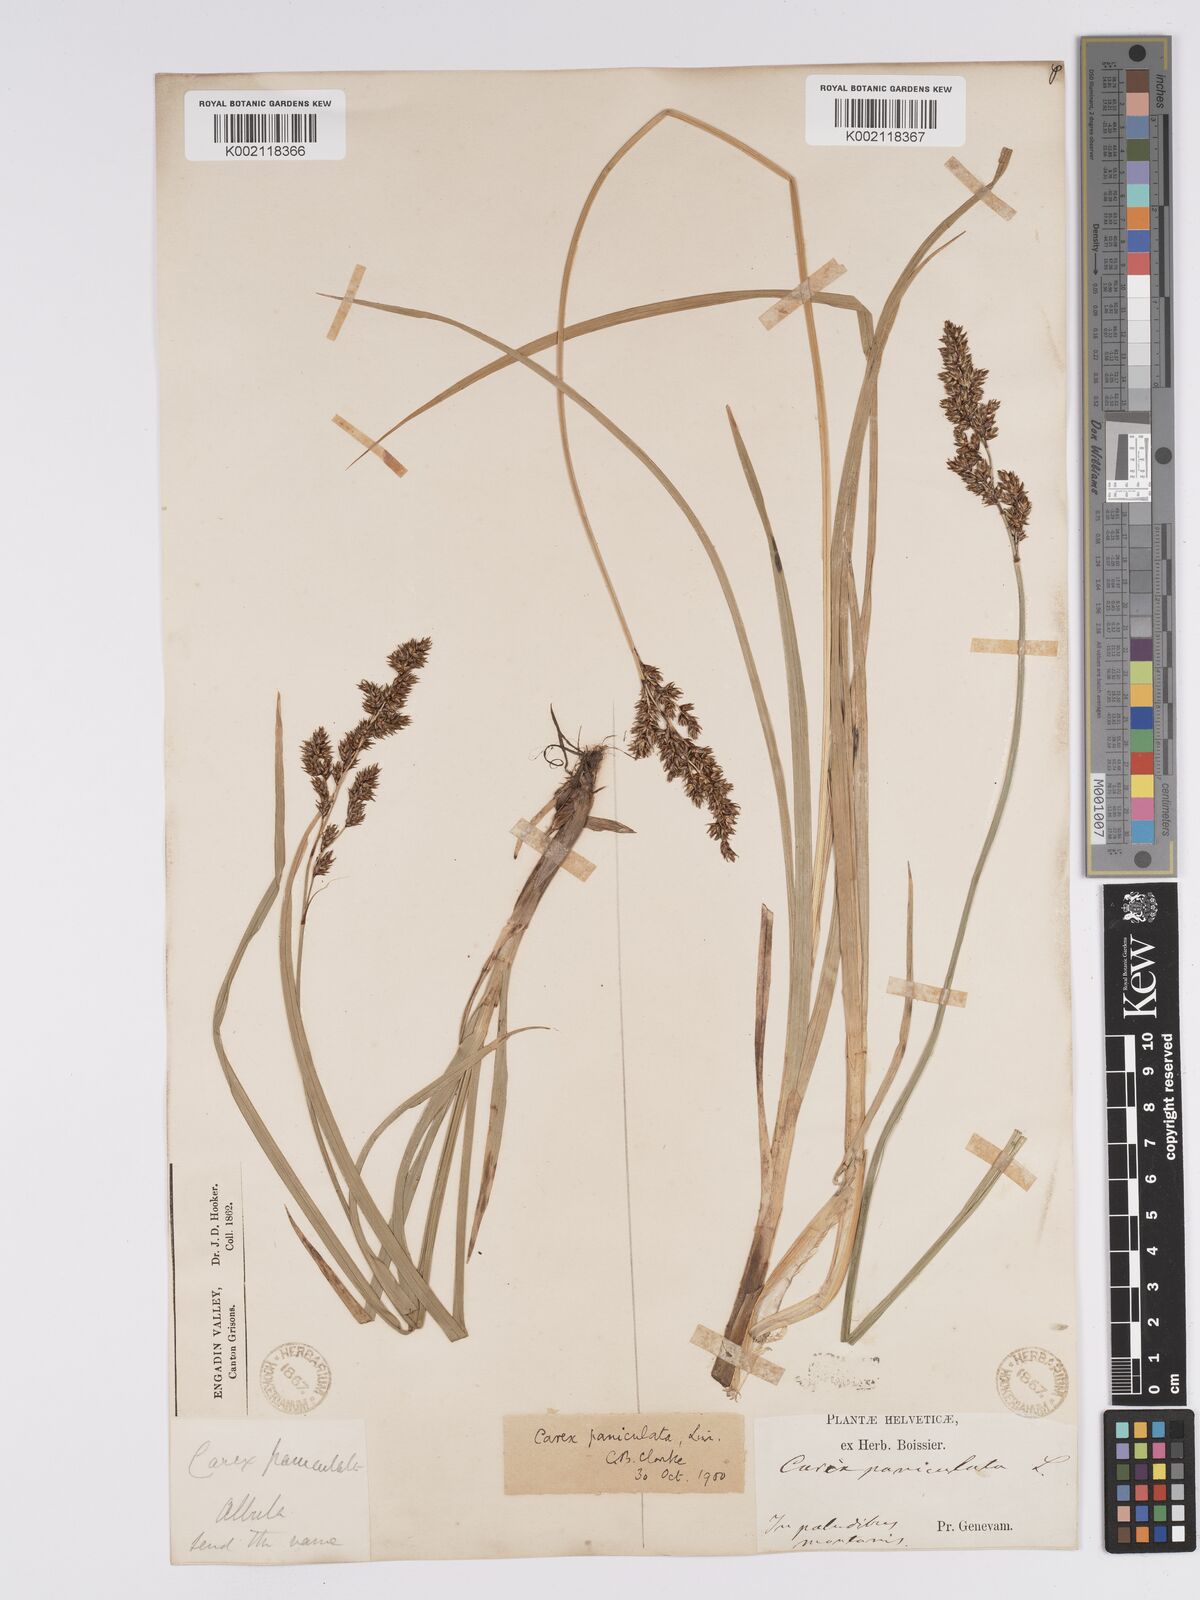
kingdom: Plantae
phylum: Tracheophyta
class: Liliopsida
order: Poales
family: Cyperaceae
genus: Carex
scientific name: Carex paniculata
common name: Greater tussock-sedge
